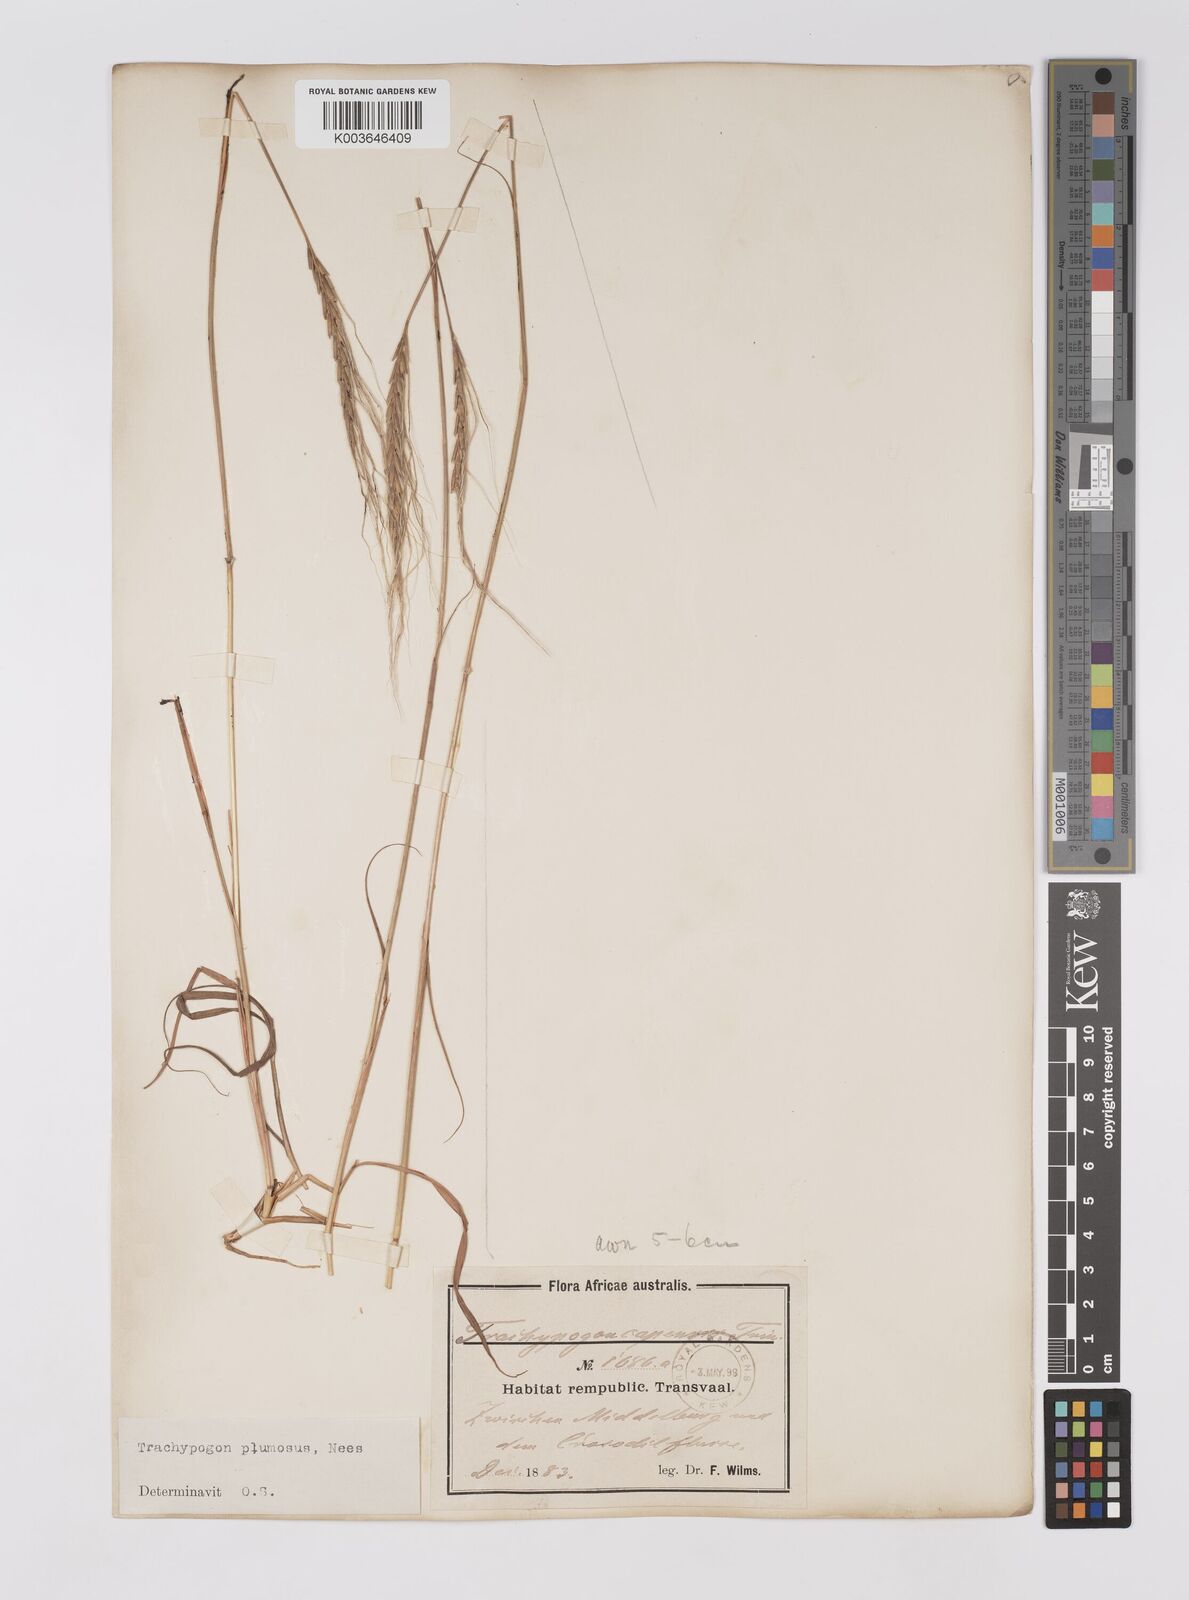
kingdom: Plantae
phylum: Tracheophyta
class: Liliopsida
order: Poales
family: Poaceae
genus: Trachypogon
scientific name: Trachypogon spicatus
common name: Crinkle-awn
